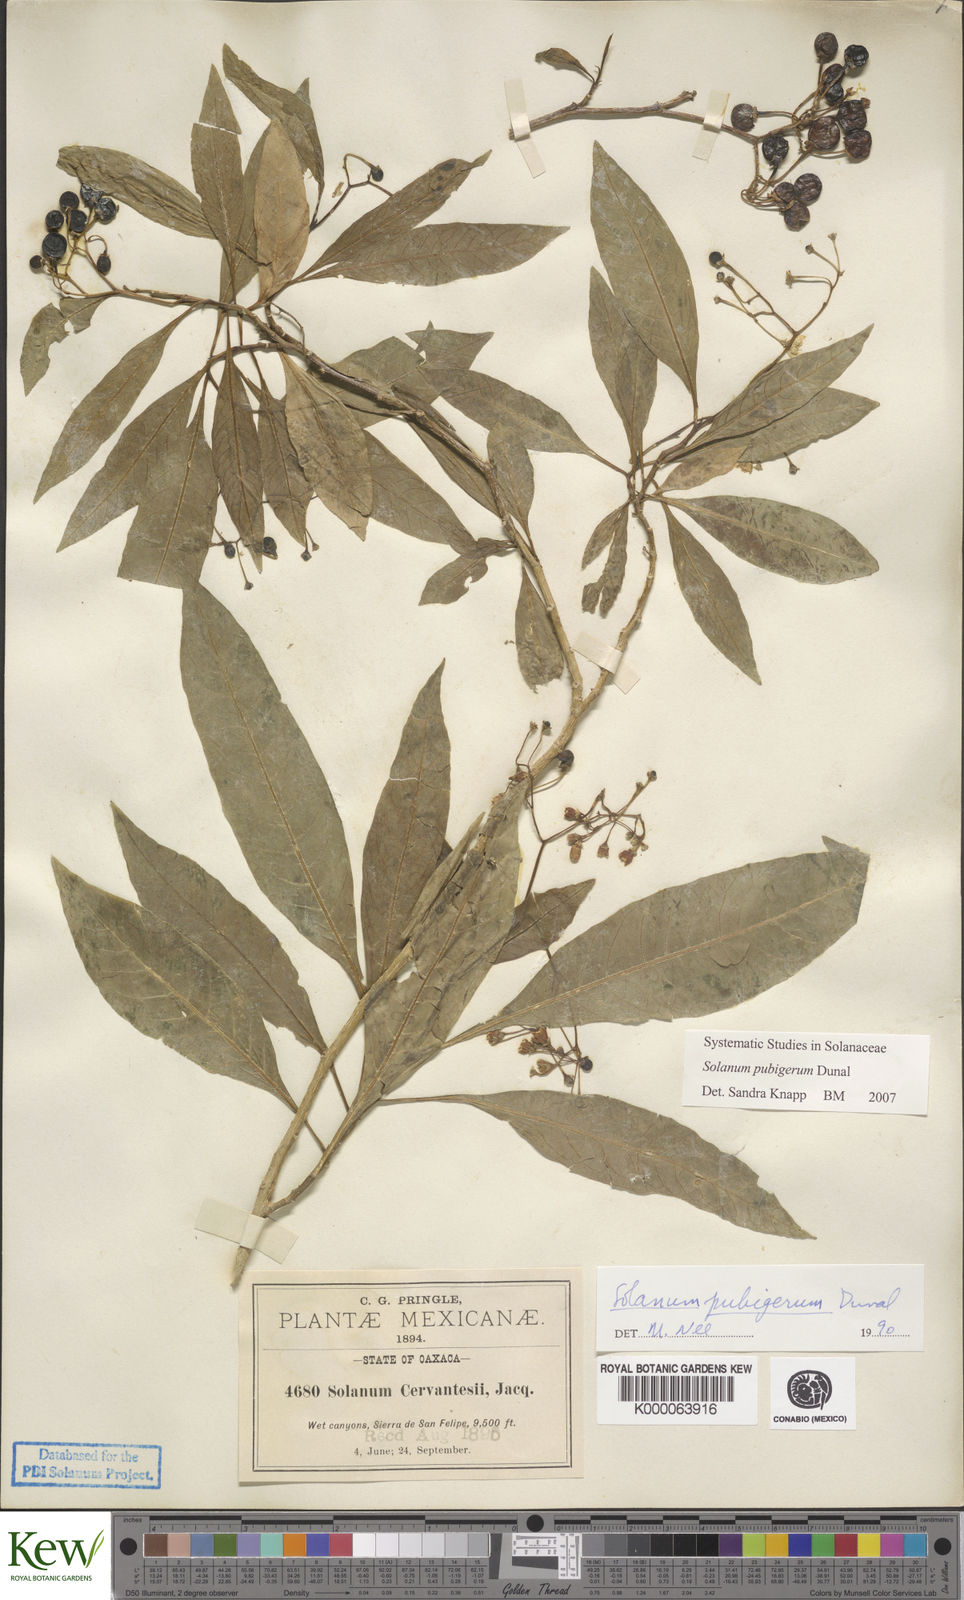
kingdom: Plantae
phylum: Tracheophyta
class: Magnoliopsida
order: Solanales
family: Solanaceae
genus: Solanum
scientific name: Solanum pubigerum
